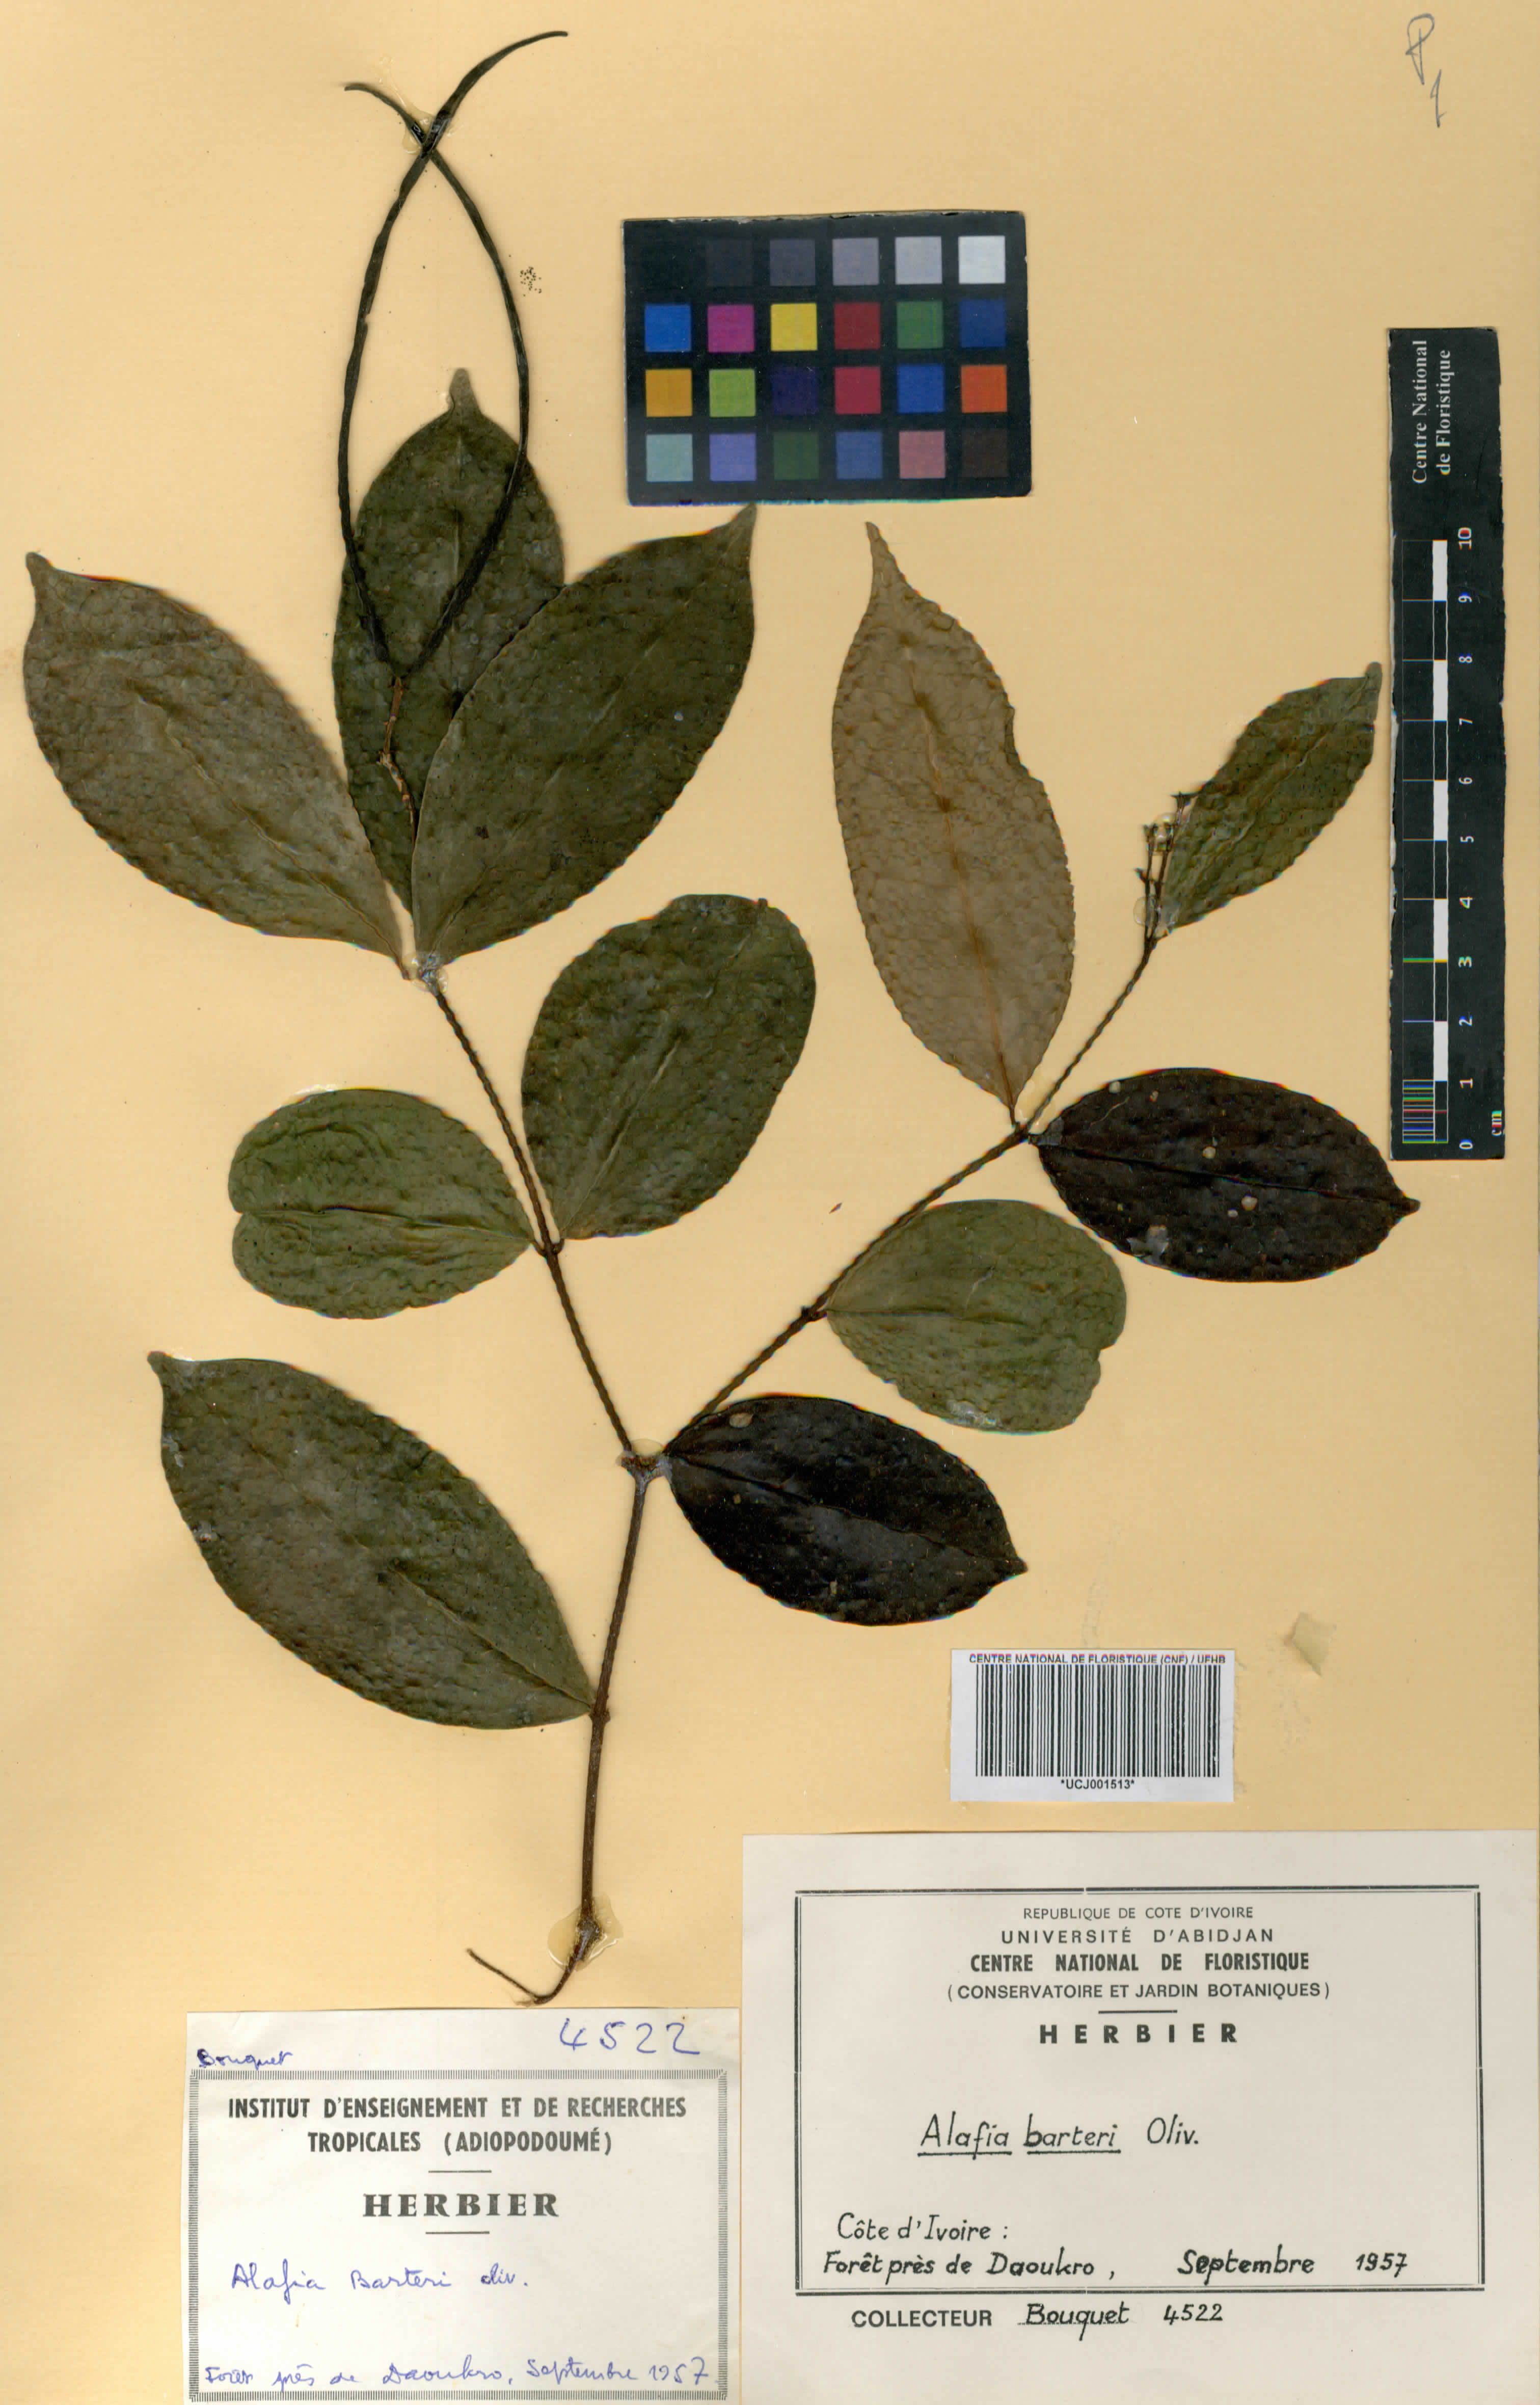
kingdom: Plantae
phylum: Tracheophyta
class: Magnoliopsida
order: Gentianales
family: Apocynaceae
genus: Alafia
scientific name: Alafia barteri
